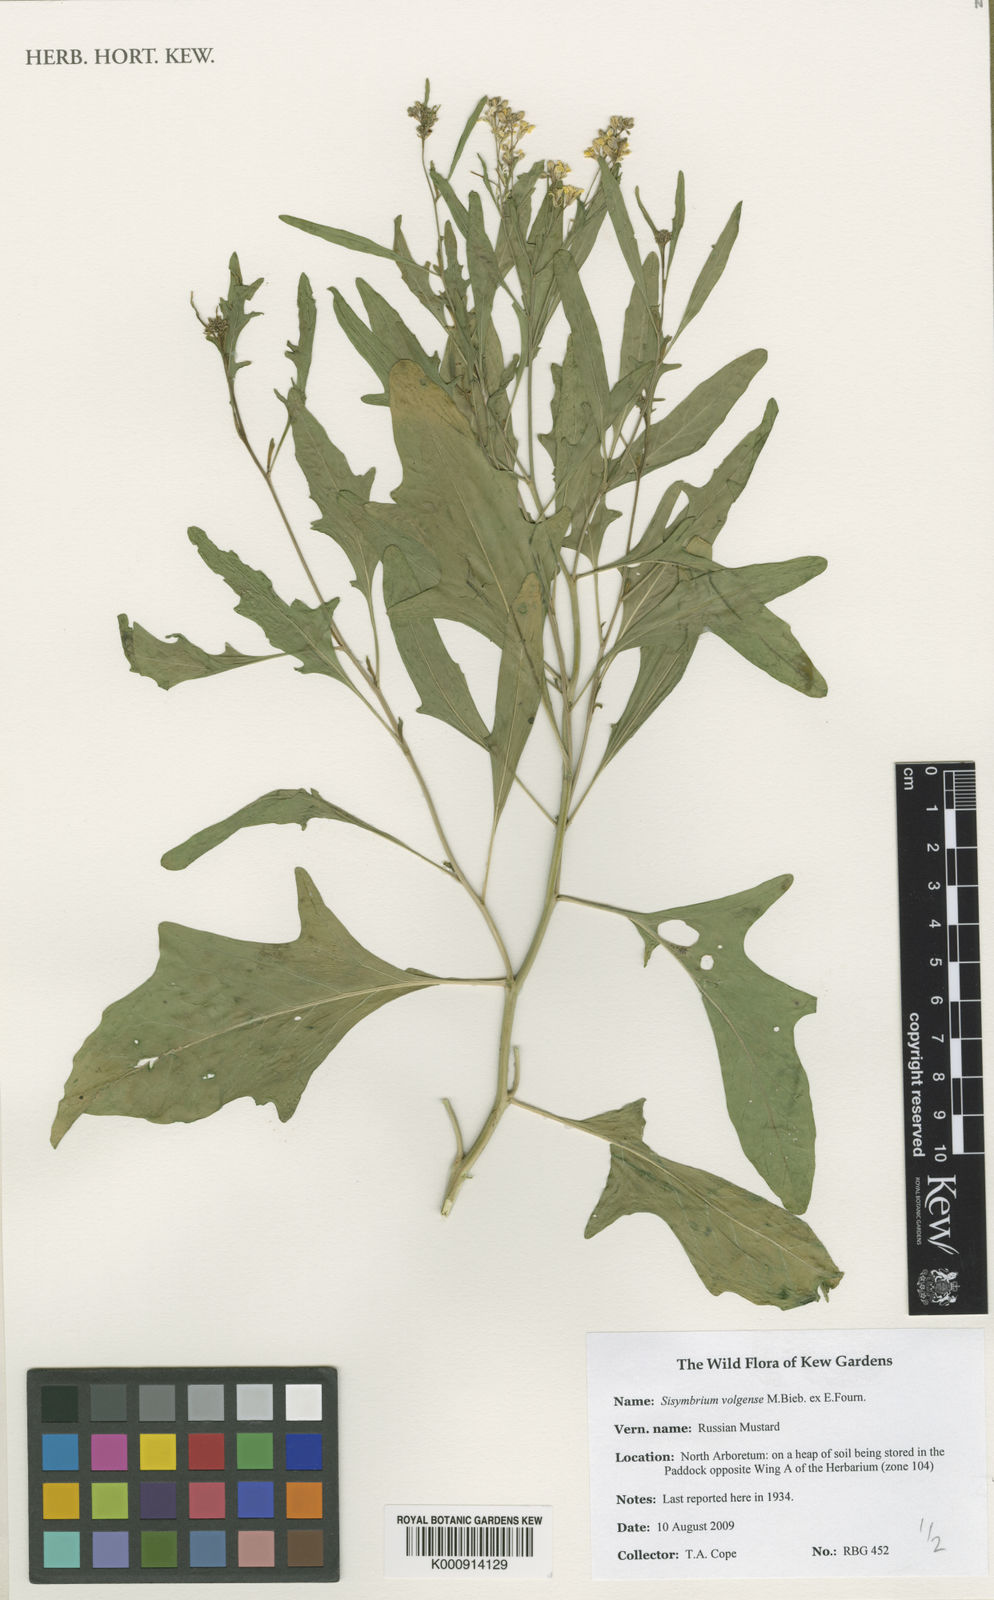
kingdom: Plantae
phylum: Tracheophyta
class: Magnoliopsida
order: Brassicales
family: Brassicaceae
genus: Sisymbrium
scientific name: Sisymbrium volgense
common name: Russian mustard
